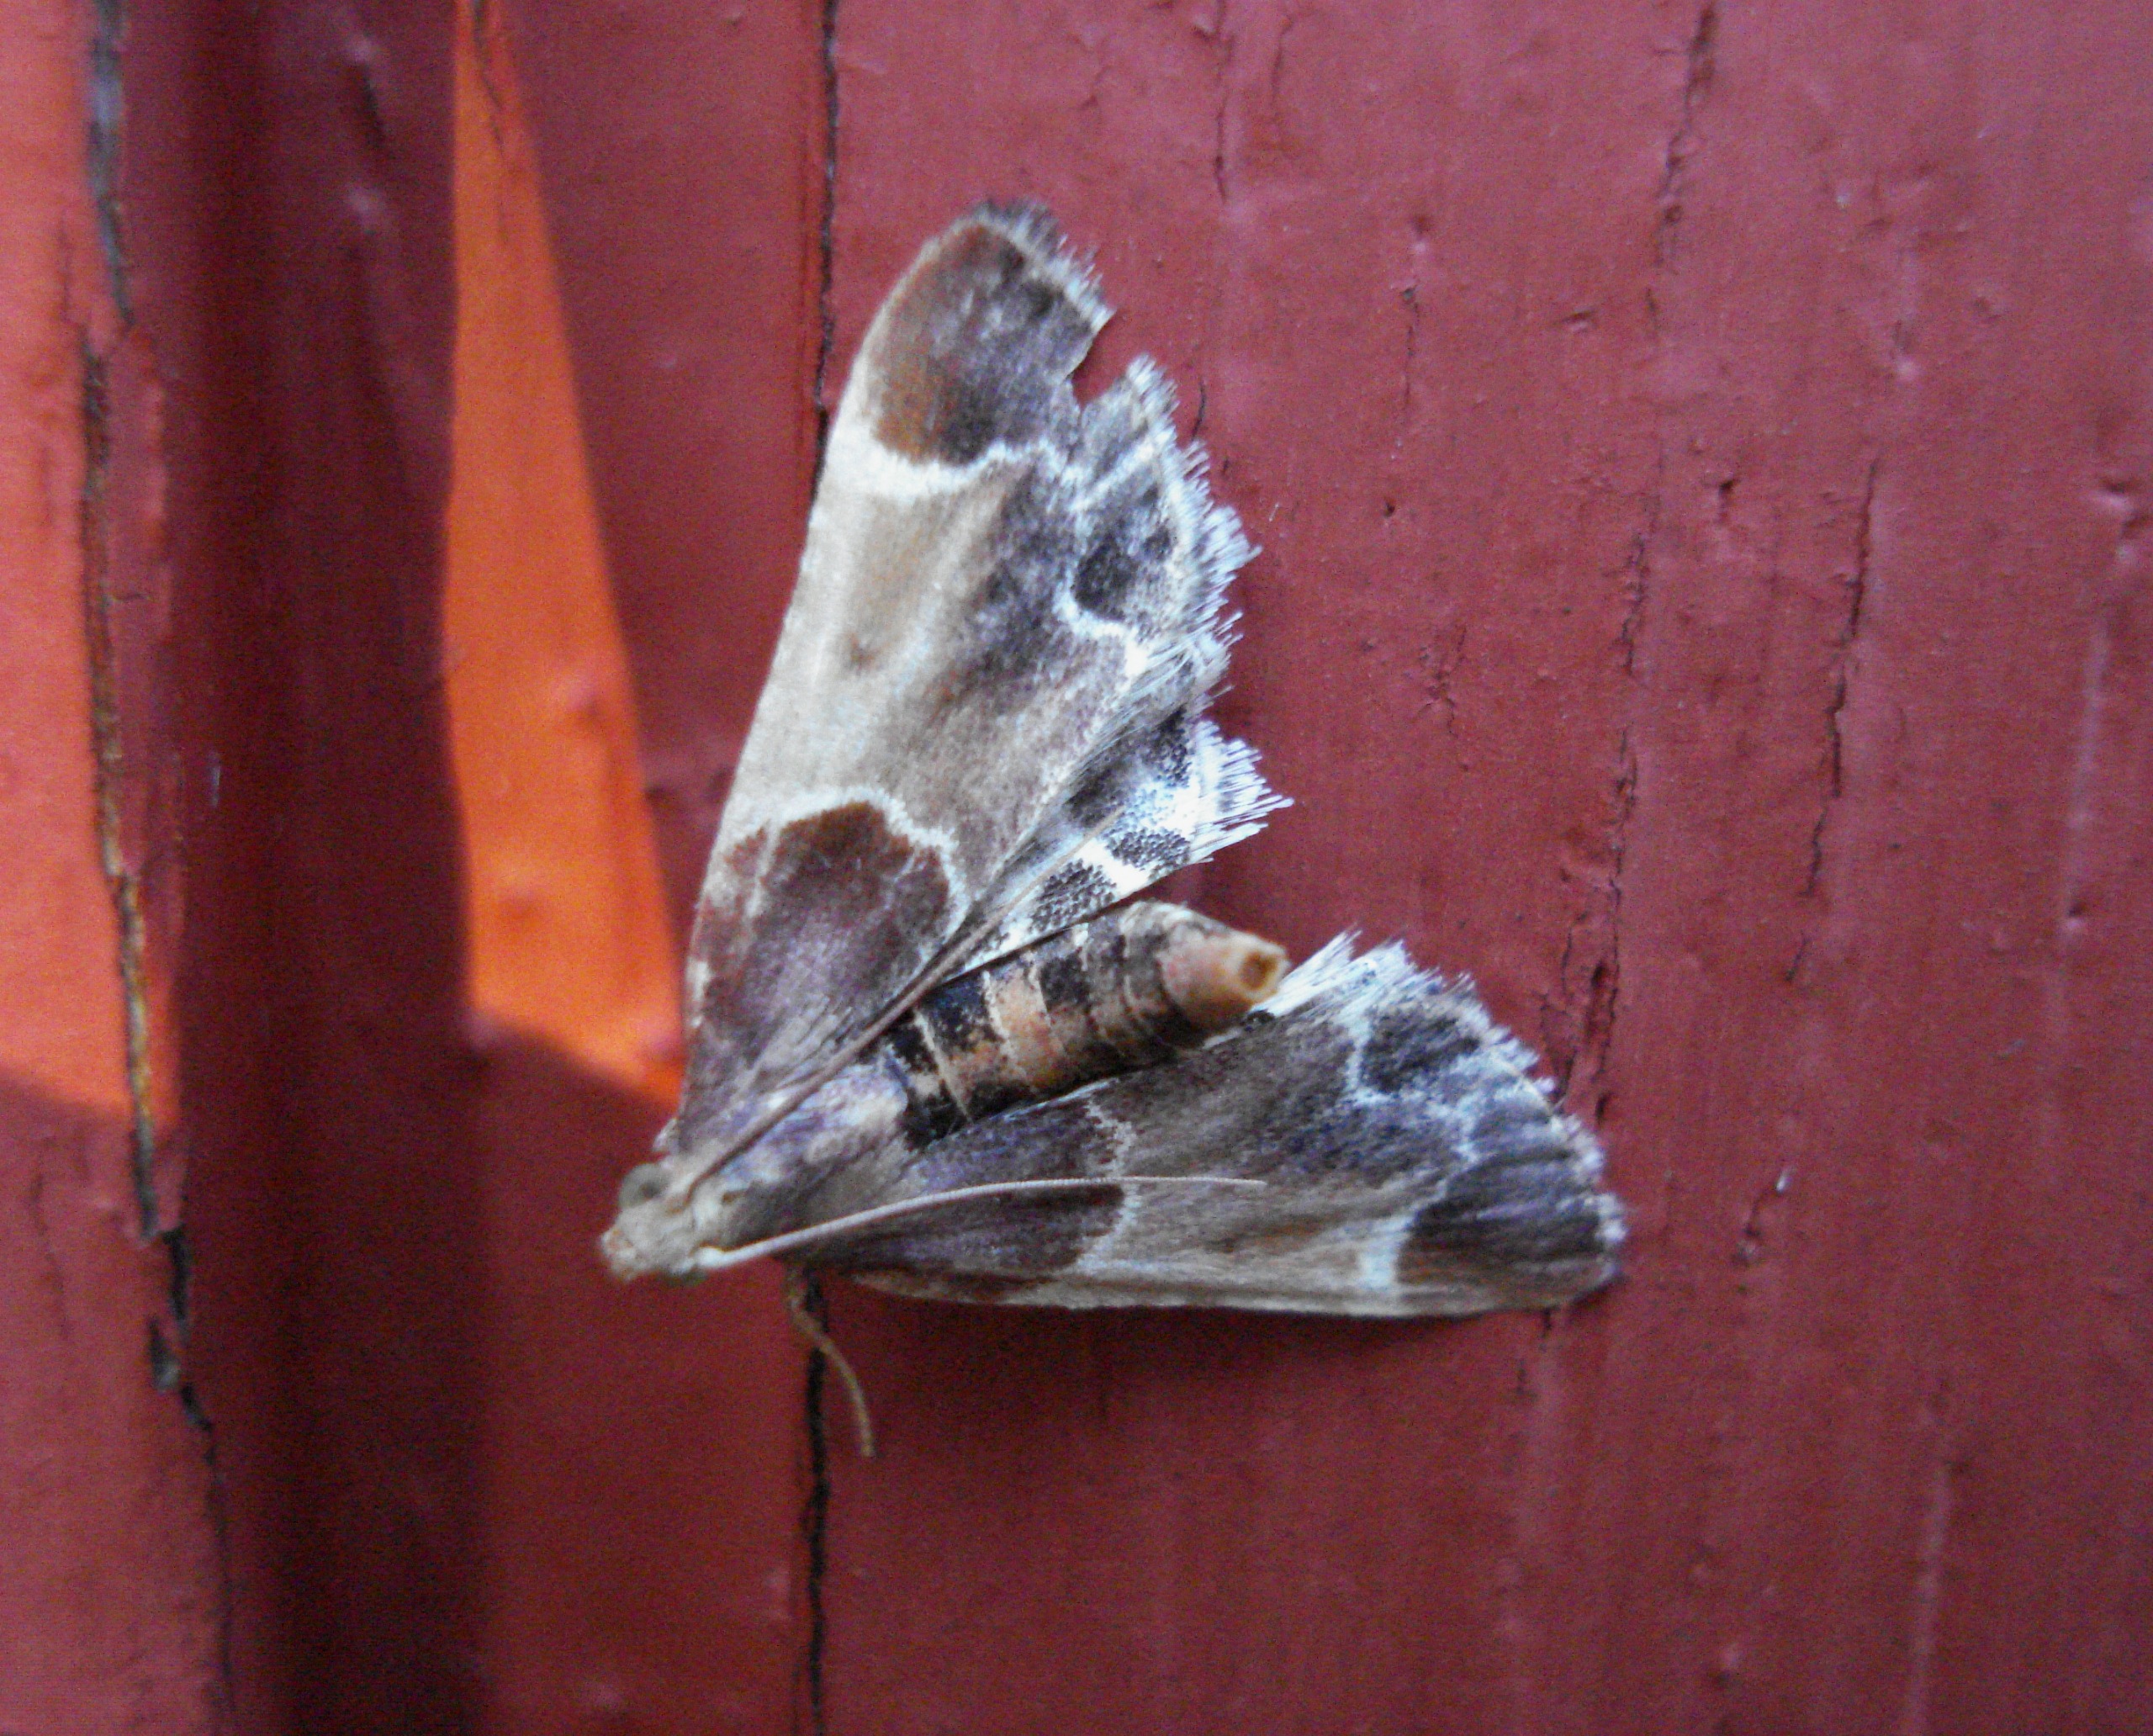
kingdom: Animalia
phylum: Arthropoda
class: Insecta
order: Lepidoptera
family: Pyralidae
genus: Pyralis
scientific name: Pyralis farinalis
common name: Stort melmøl
